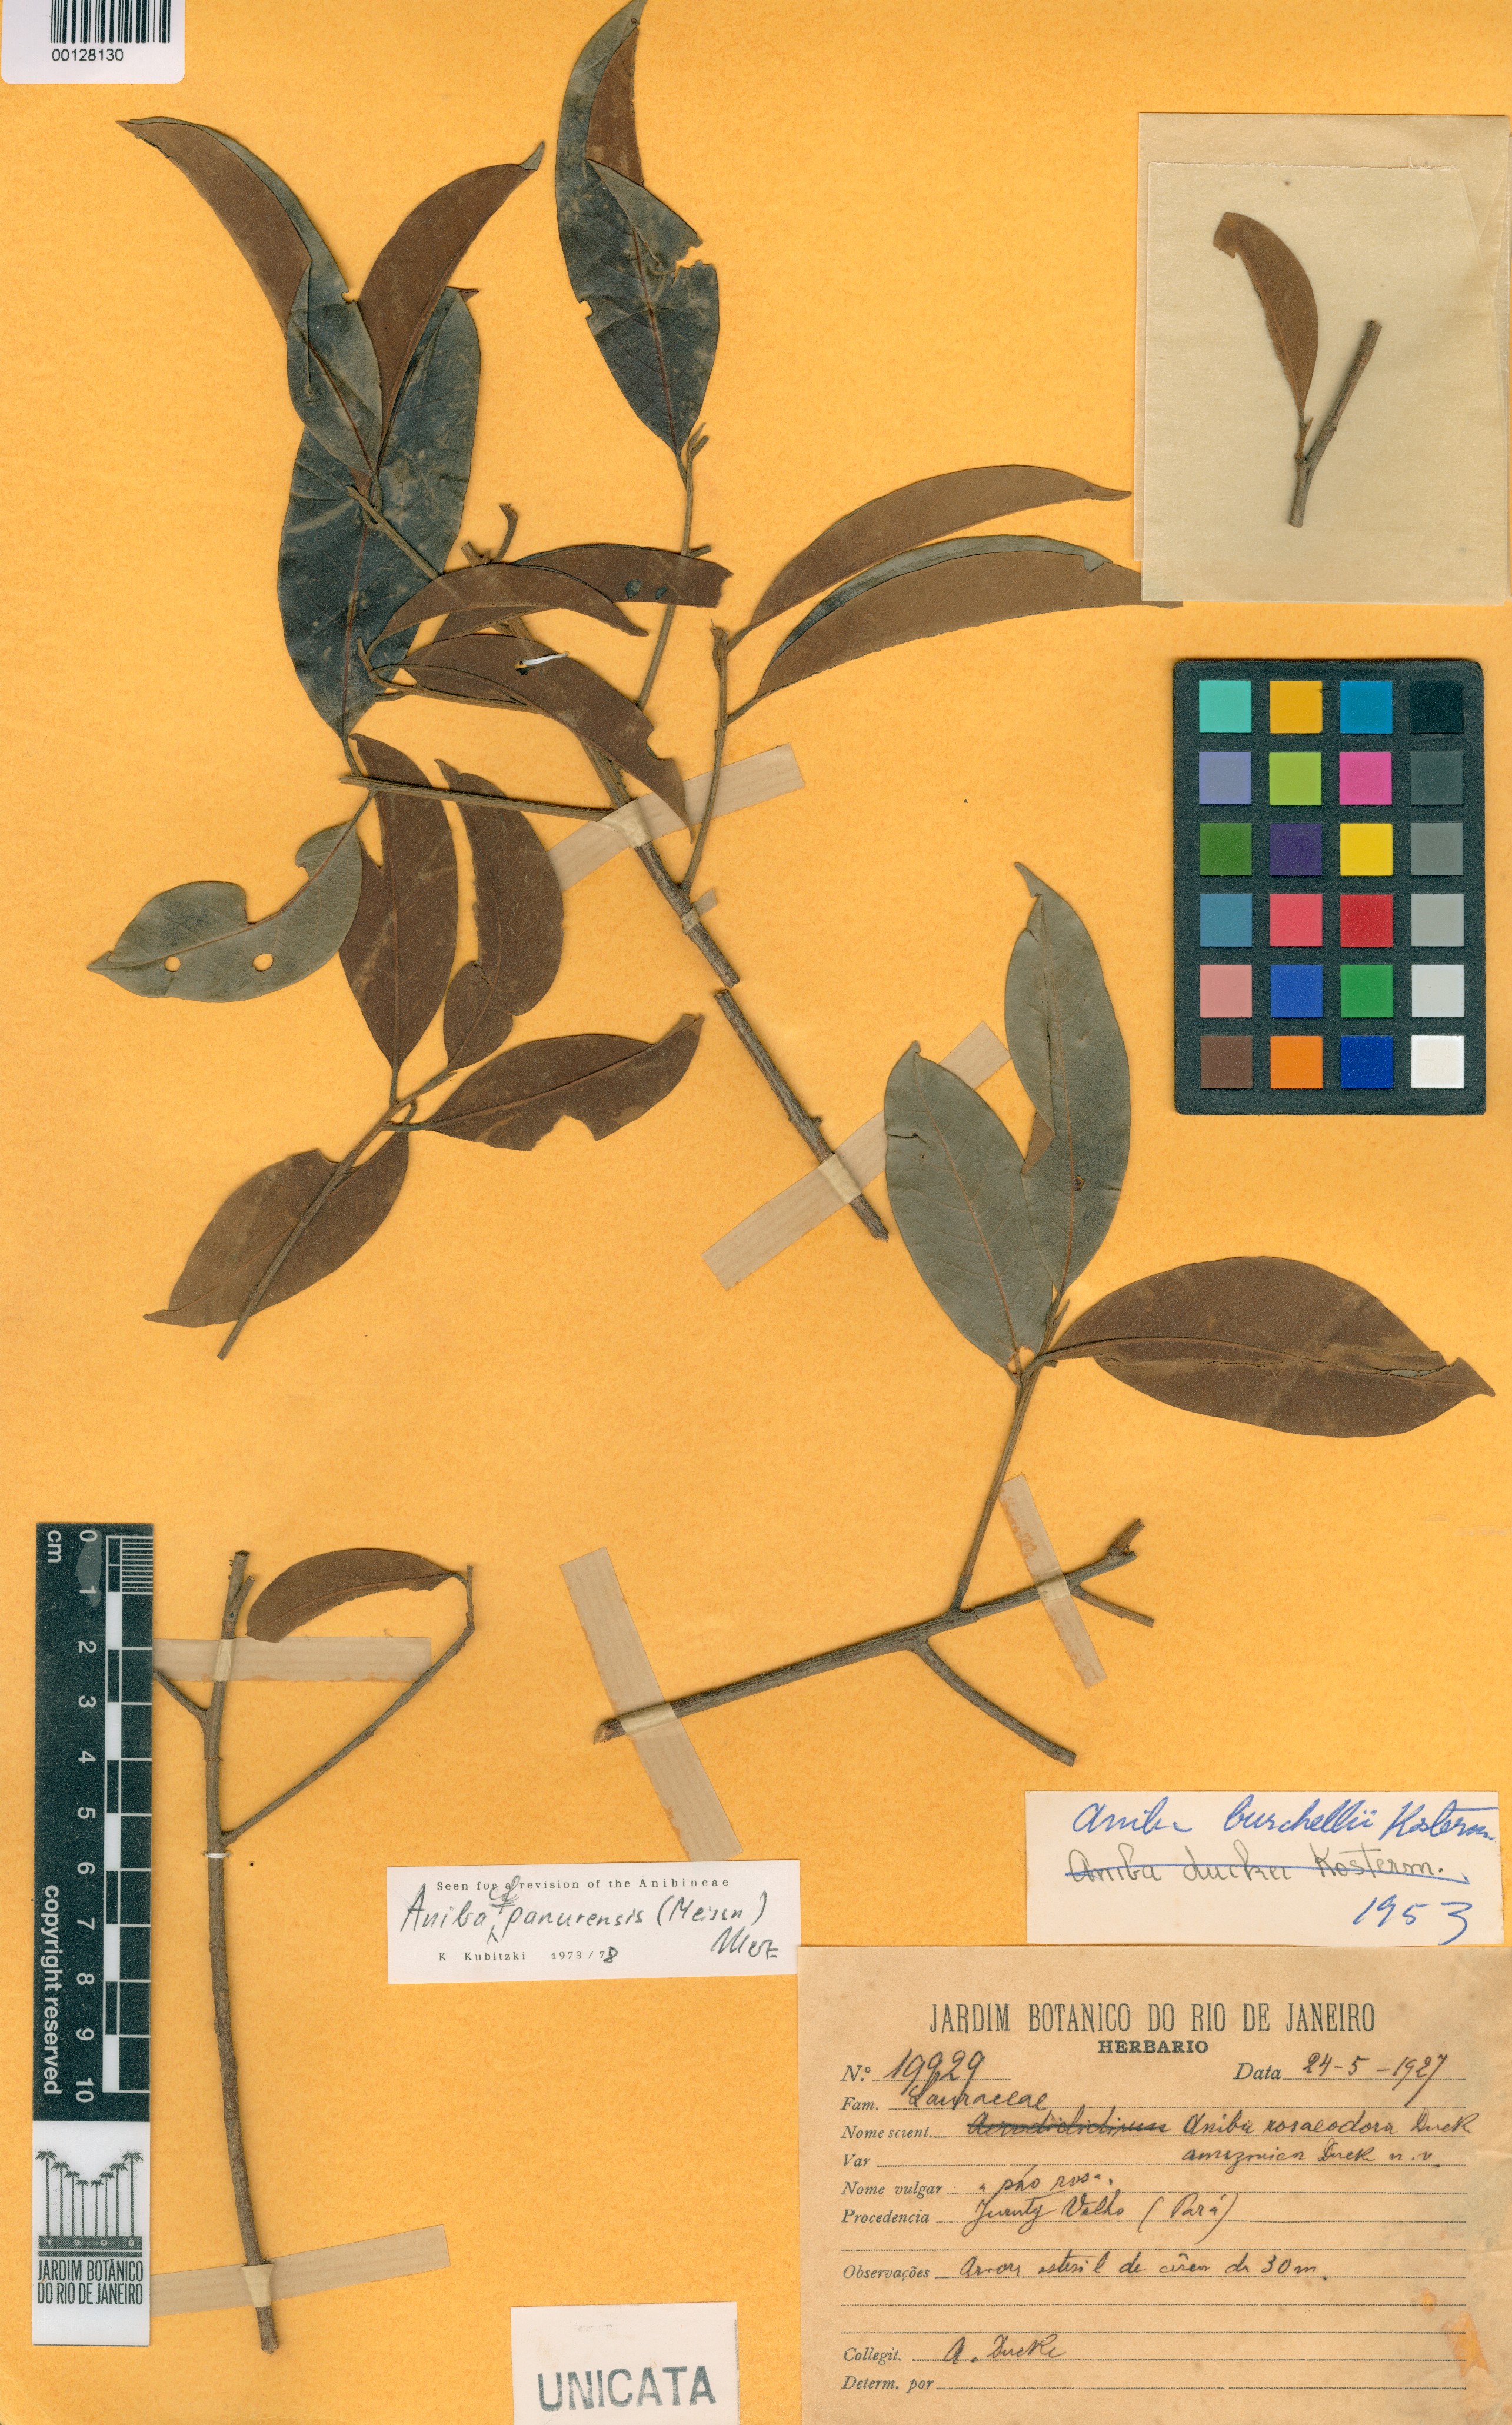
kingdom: Plantae
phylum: Tracheophyta
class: Magnoliopsida
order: Laurales
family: Lauraceae
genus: Aniba
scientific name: Aniba rosaeodora
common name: Brazilian rosewood
